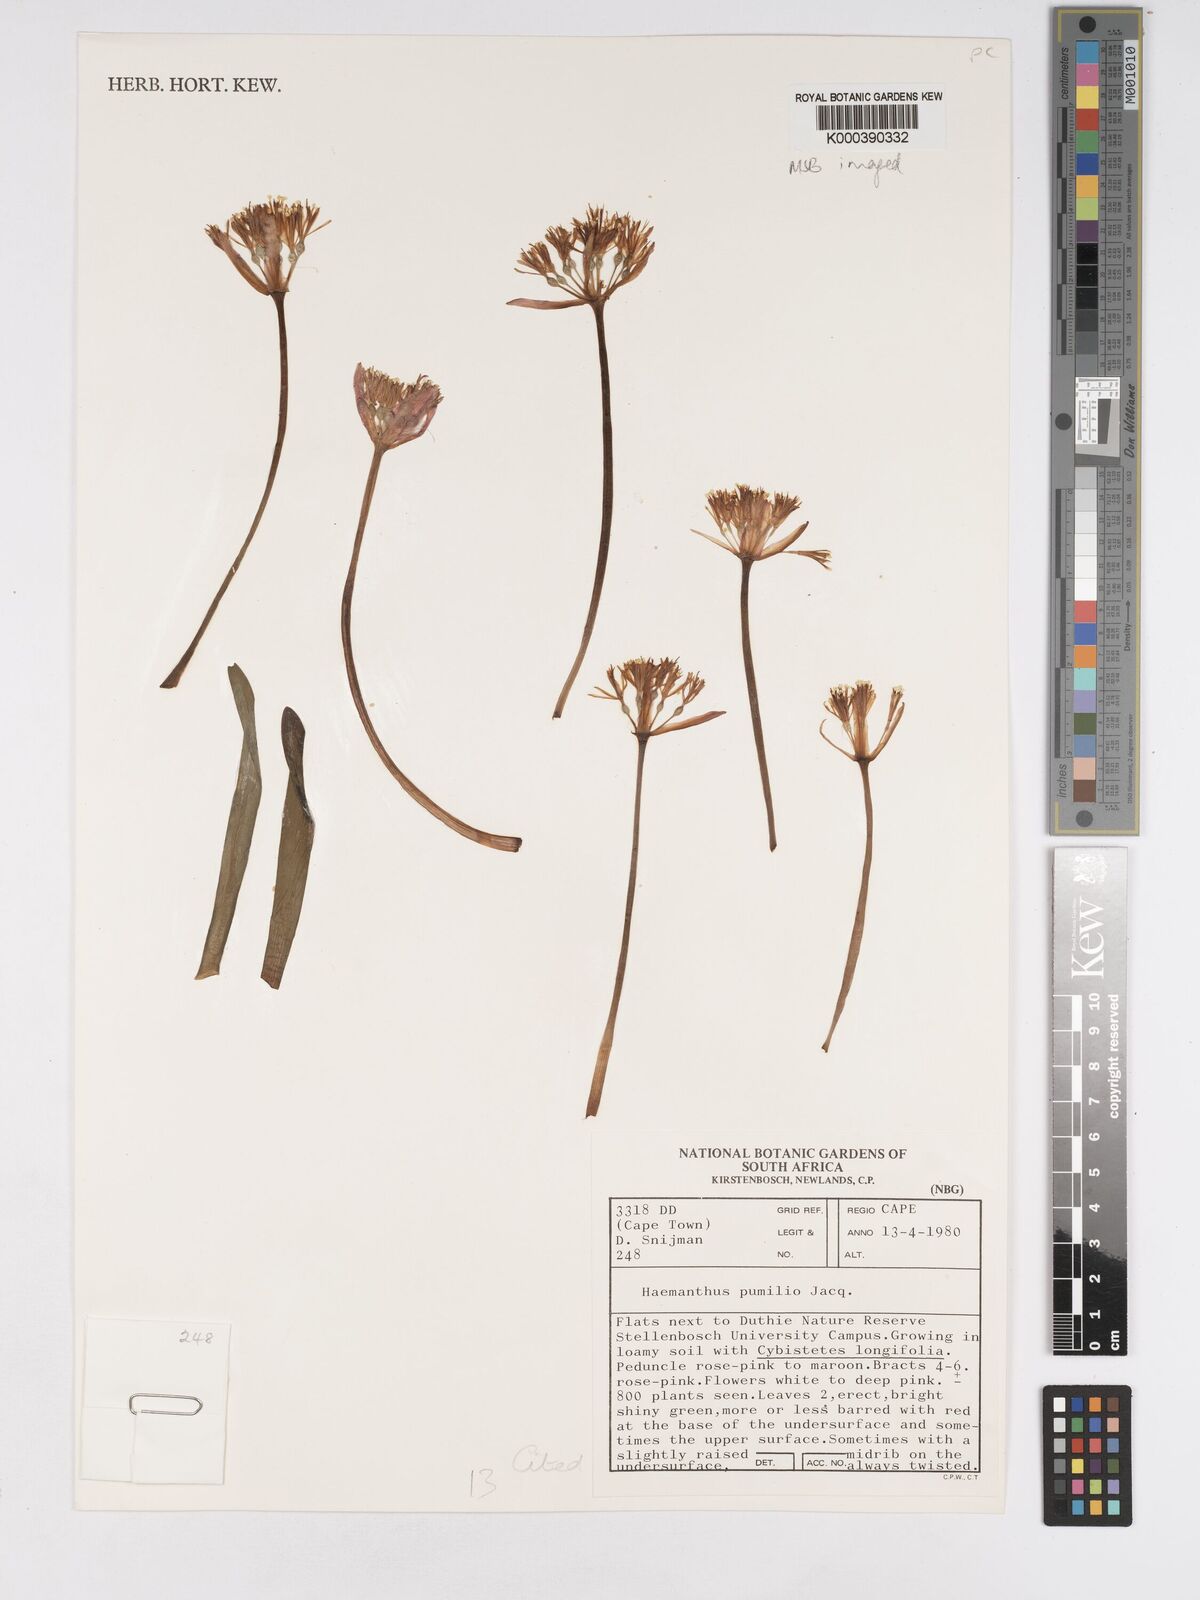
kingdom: Plantae
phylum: Tracheophyta
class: Liliopsida
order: Asparagales
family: Amaryllidaceae
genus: Haemanthus
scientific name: Haemanthus pumilio
